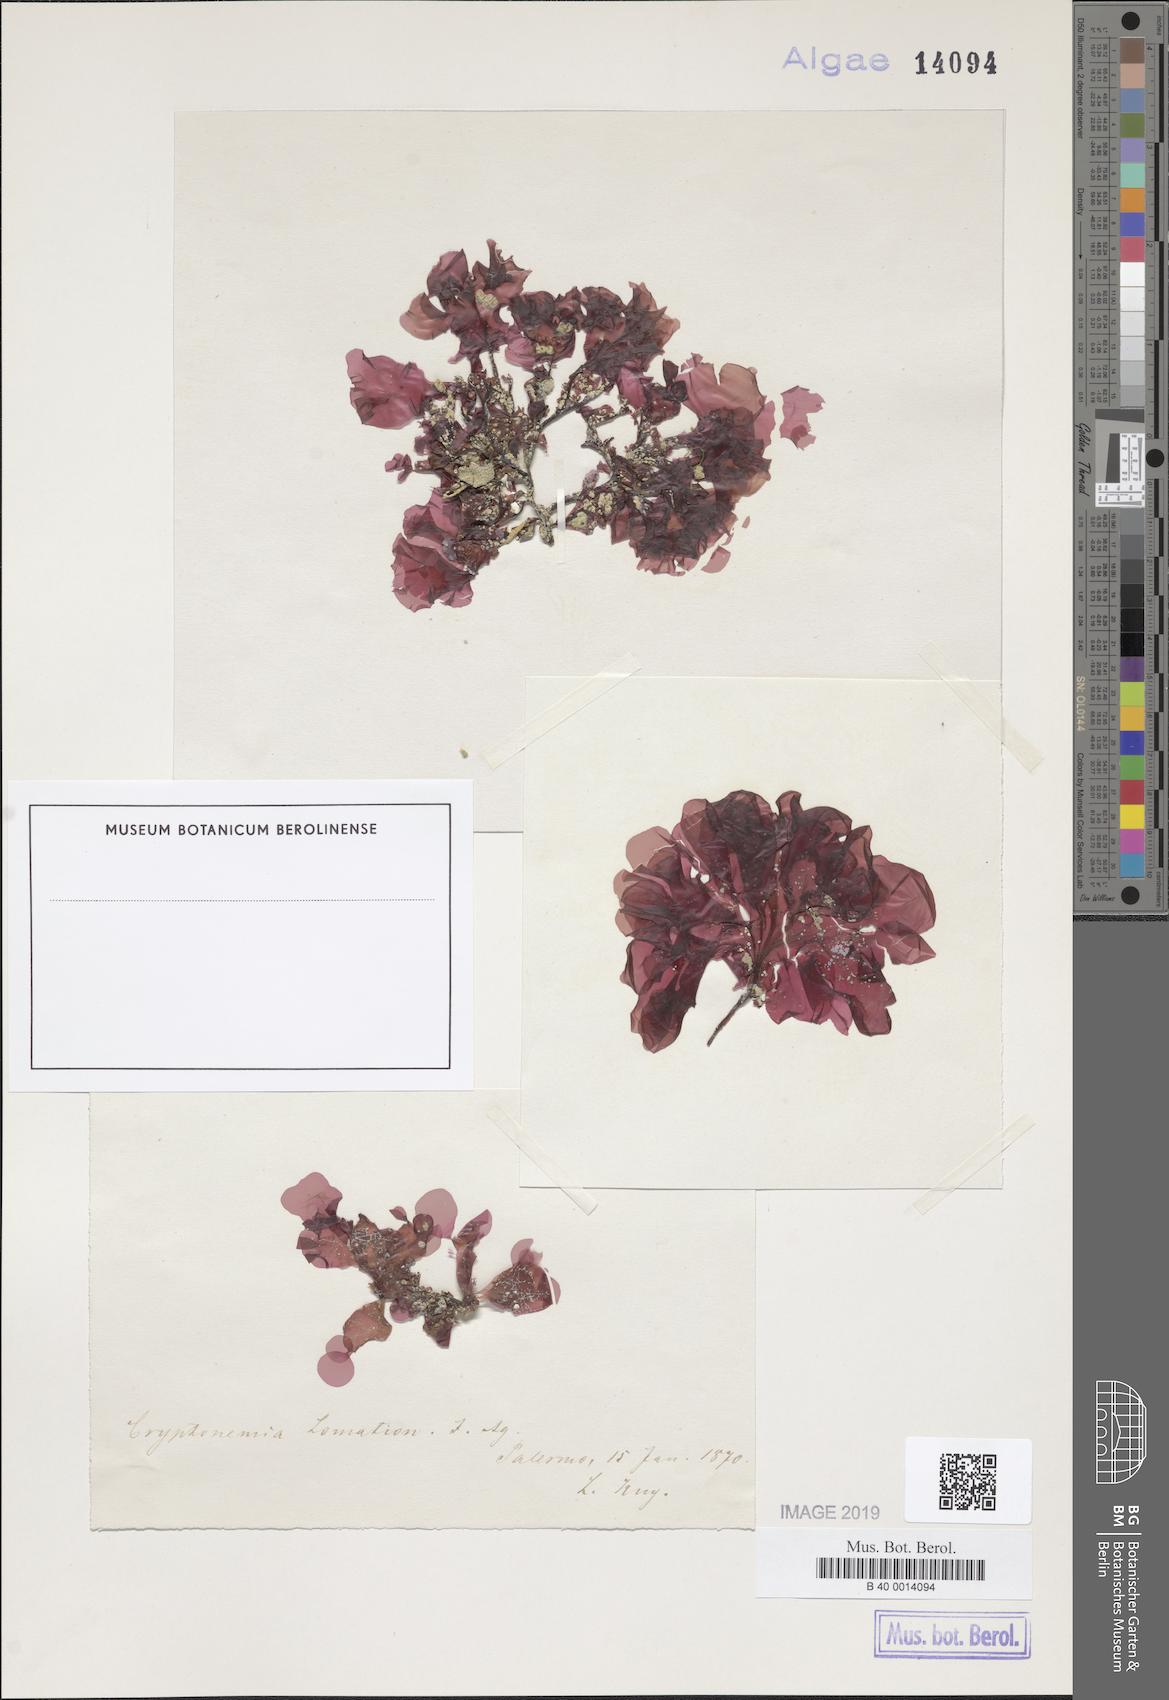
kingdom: Plantae
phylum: Rhodophyta
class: Florideophyceae
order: Halymeniales
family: Halymeniaceae
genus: Cryptonemia
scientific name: Cryptonemia lomation
